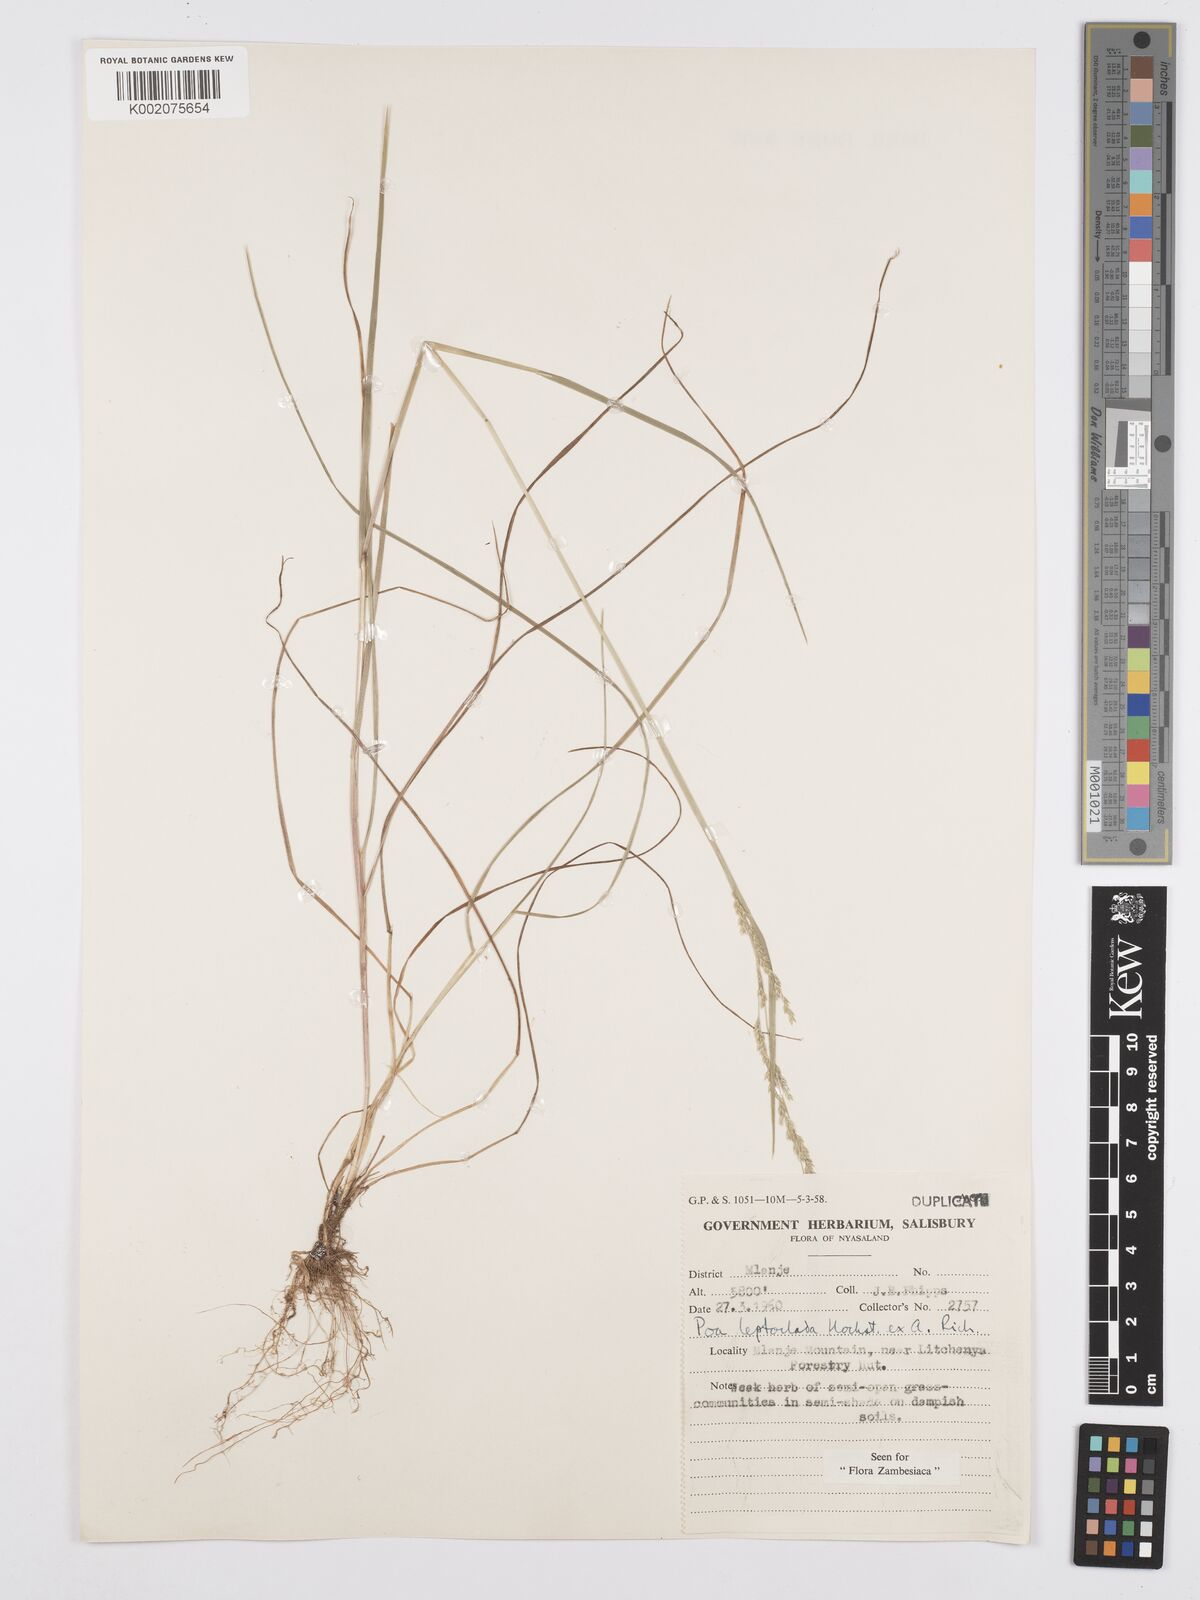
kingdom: Plantae
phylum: Tracheophyta
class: Liliopsida
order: Poales
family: Poaceae
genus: Poa
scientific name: Poa leptoclada
